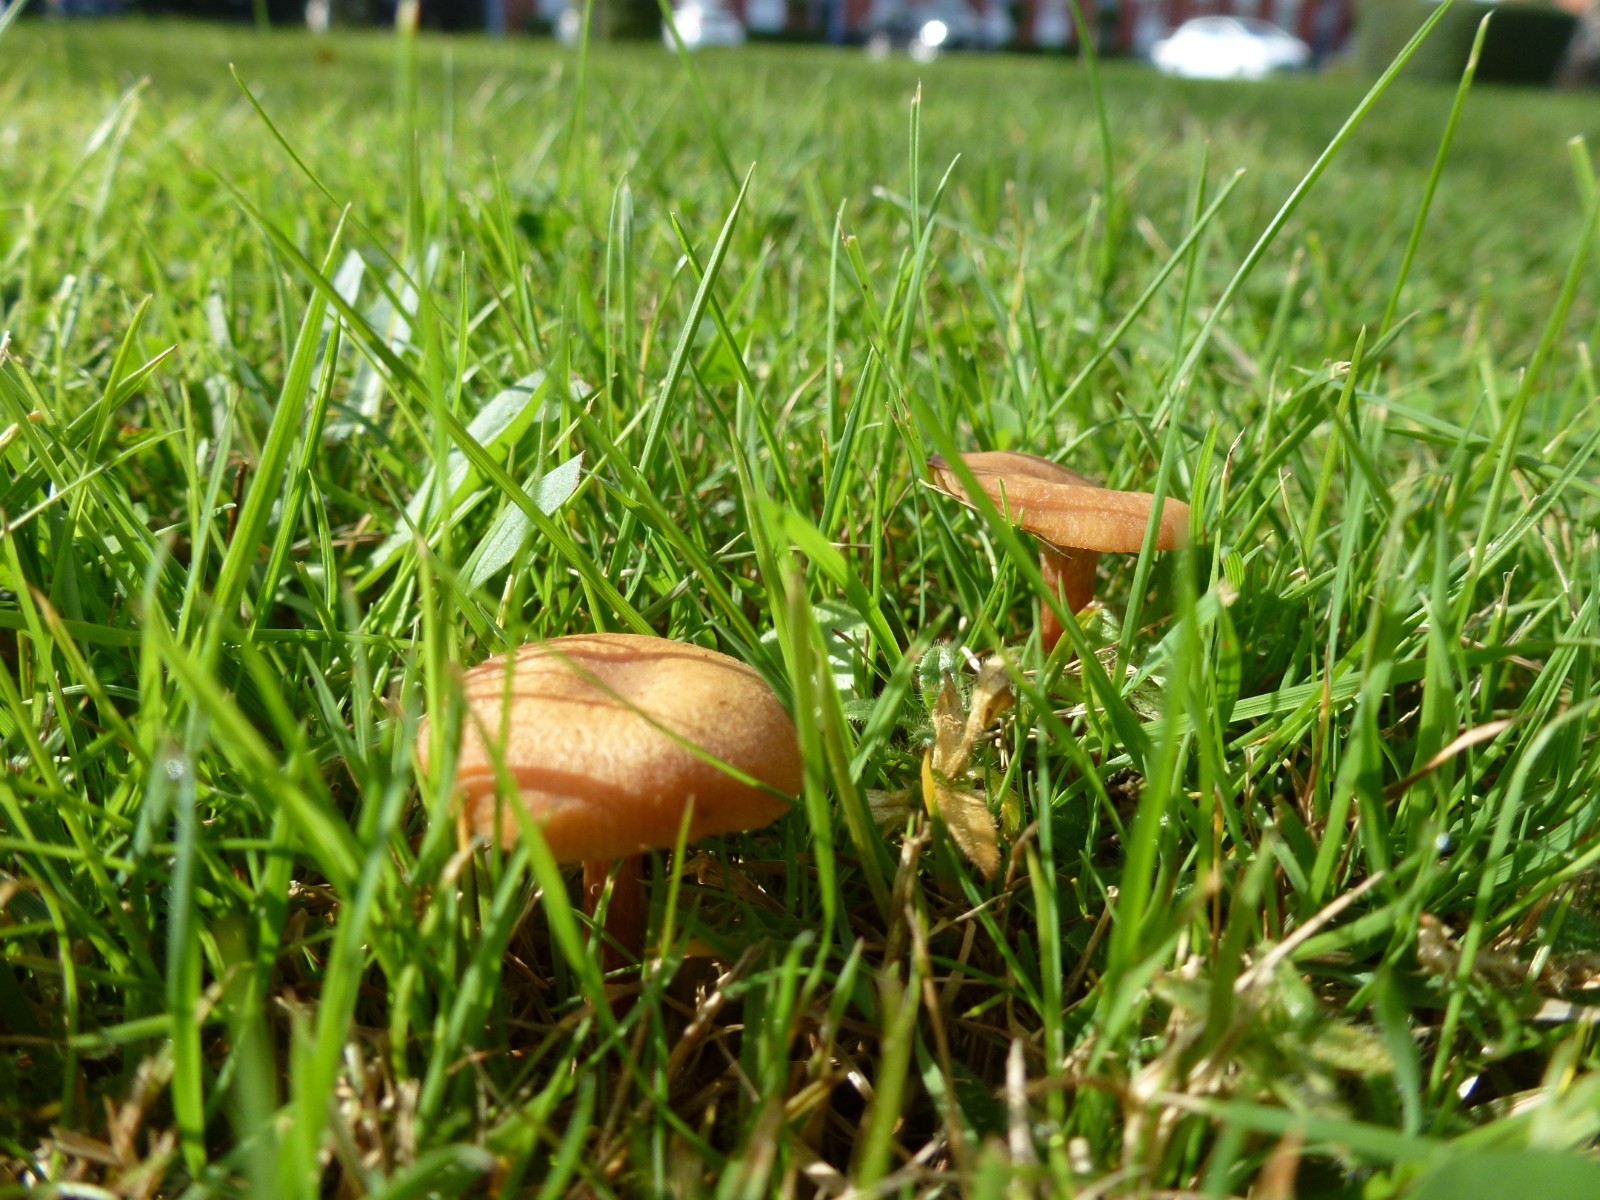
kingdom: Fungi
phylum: Basidiomycota
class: Agaricomycetes
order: Agaricales
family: Hydnangiaceae
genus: Laccaria
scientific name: Laccaria laccata
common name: rød ametysthat
